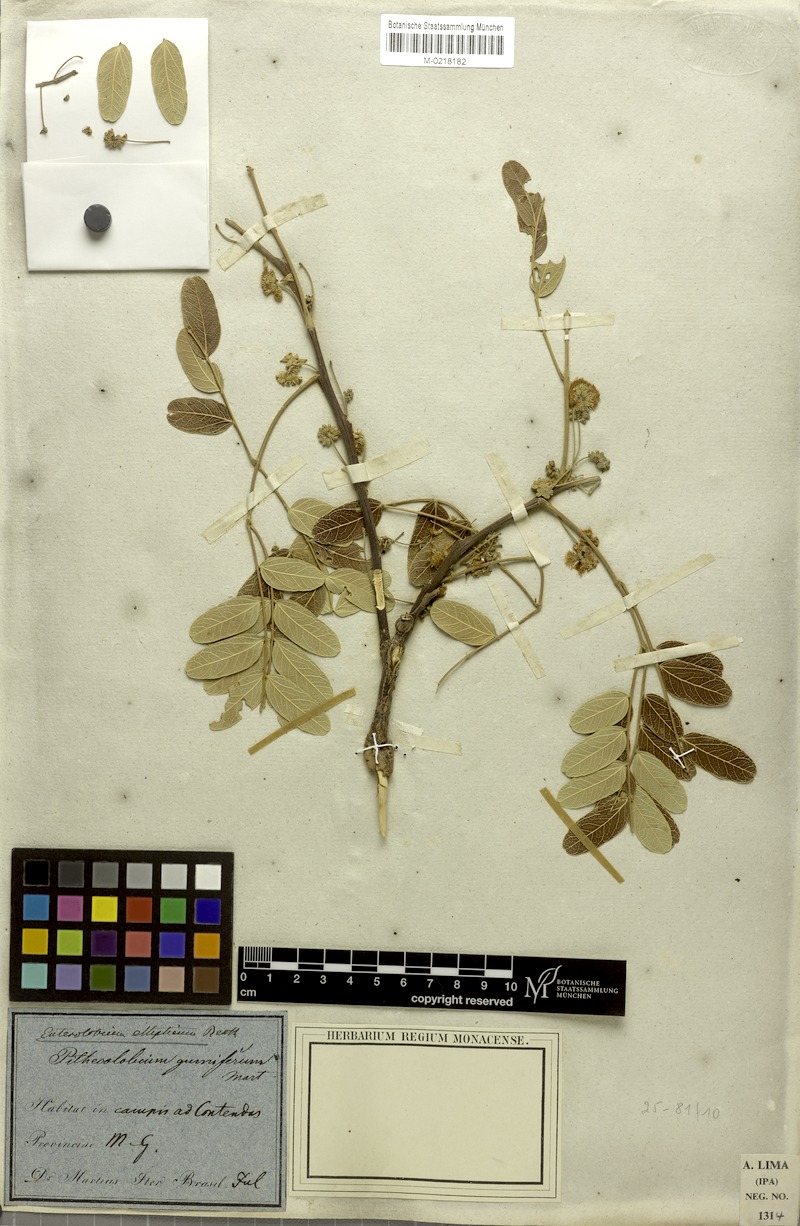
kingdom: Plantae
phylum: Tracheophyta
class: Magnoliopsida
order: Fabales
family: Fabaceae
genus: Enterolobium
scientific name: Enterolobium gummiferum
